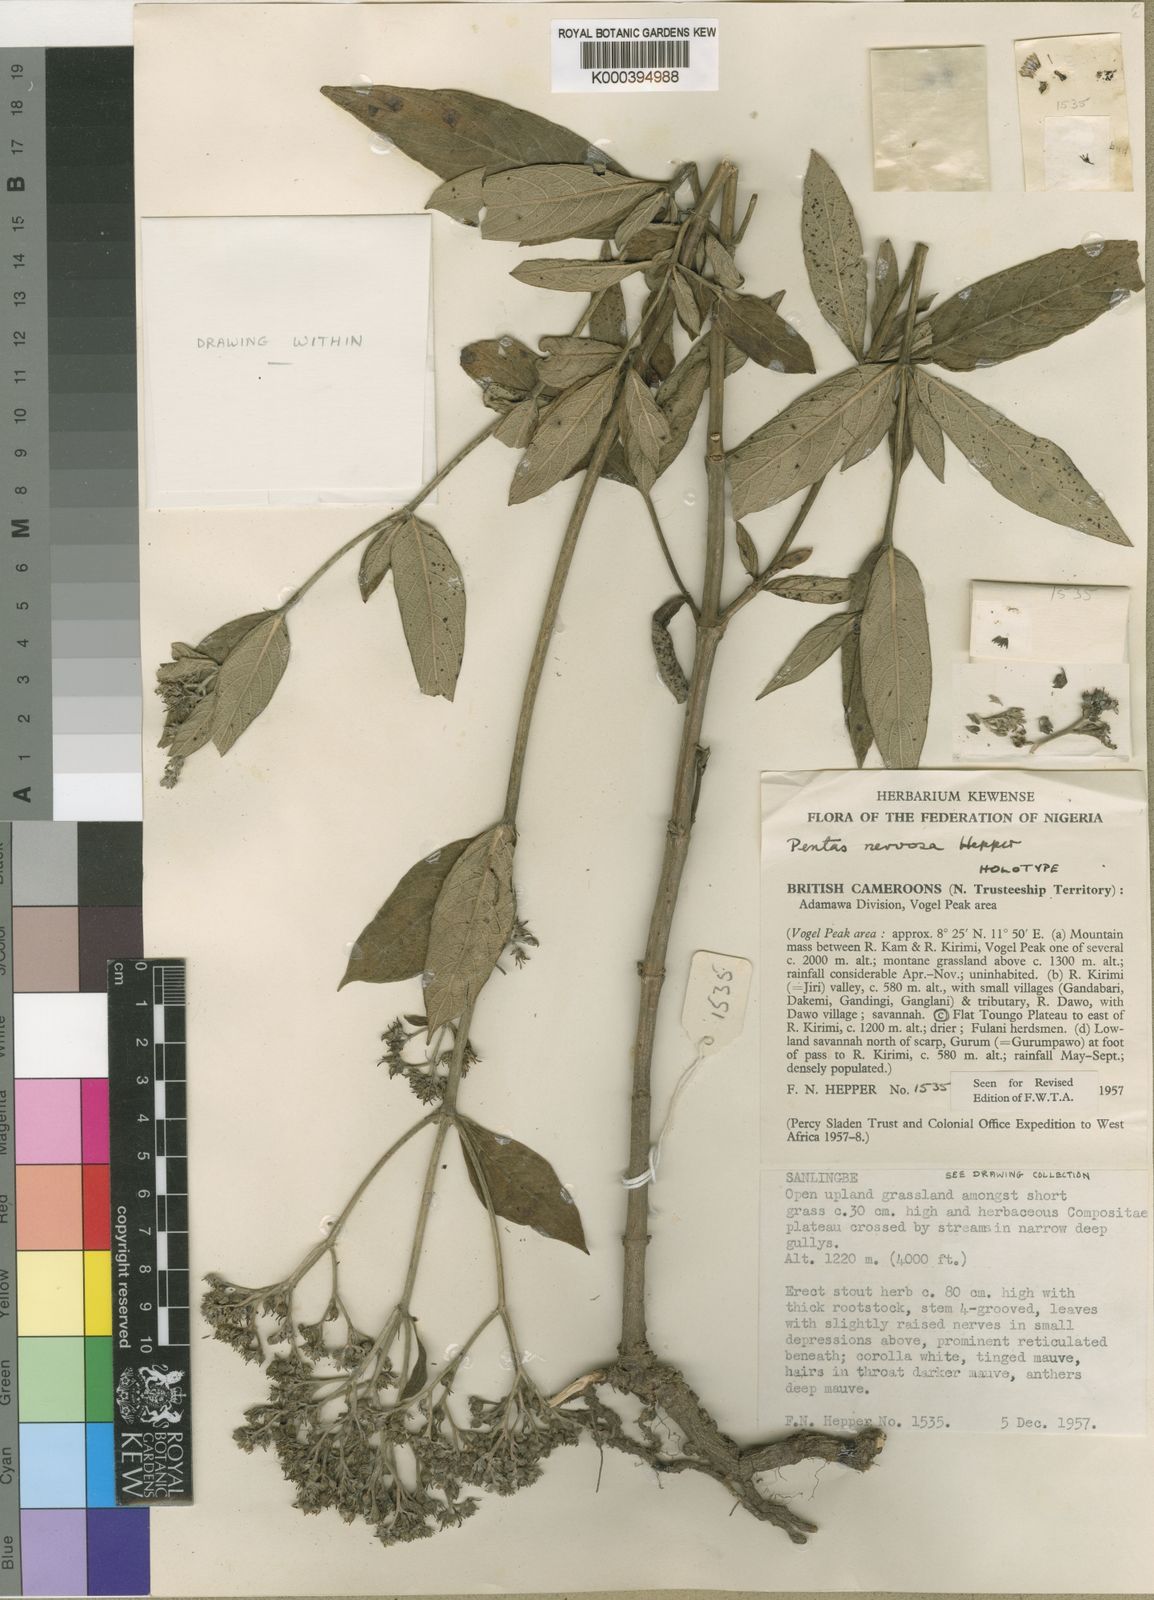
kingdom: Plantae
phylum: Tracheophyta
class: Magnoliopsida
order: Gentianales
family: Rubiaceae
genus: Pentas
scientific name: Pentas nervosa
